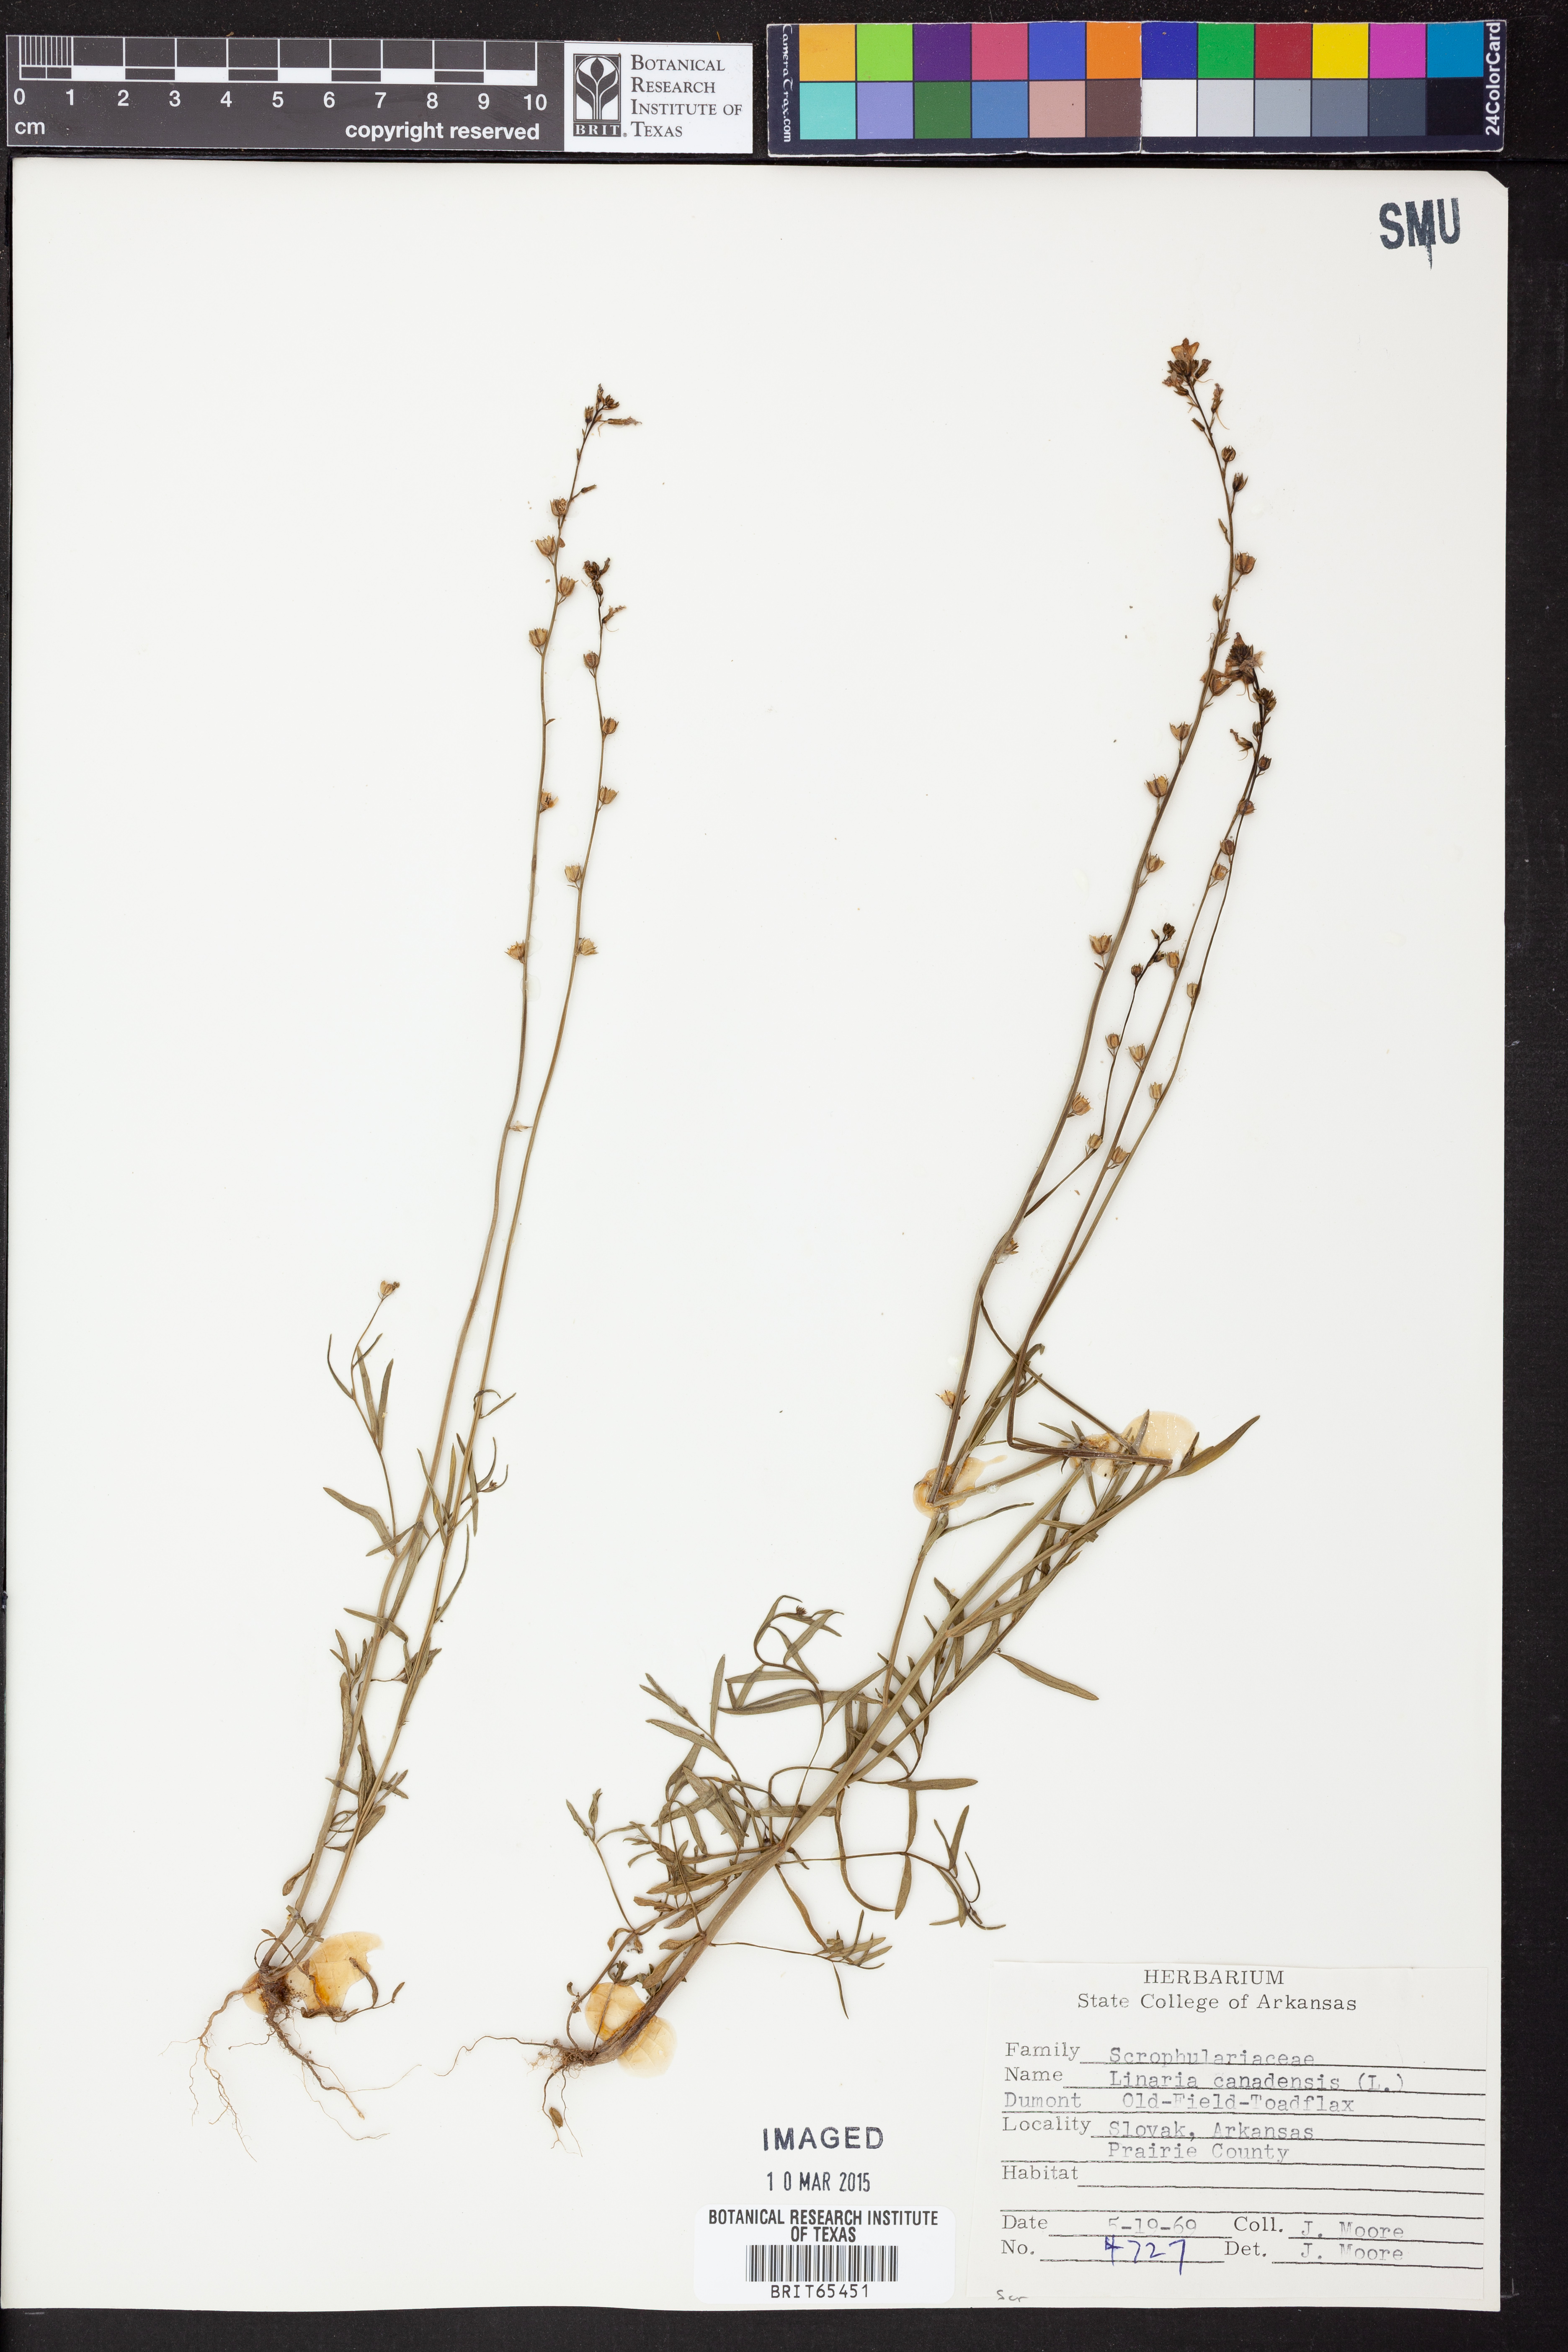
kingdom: Plantae
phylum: Tracheophyta
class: Magnoliopsida
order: Lamiales
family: Plantaginaceae
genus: Nuttallanthus
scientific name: Nuttallanthus canadensis
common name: Blue toadflax
